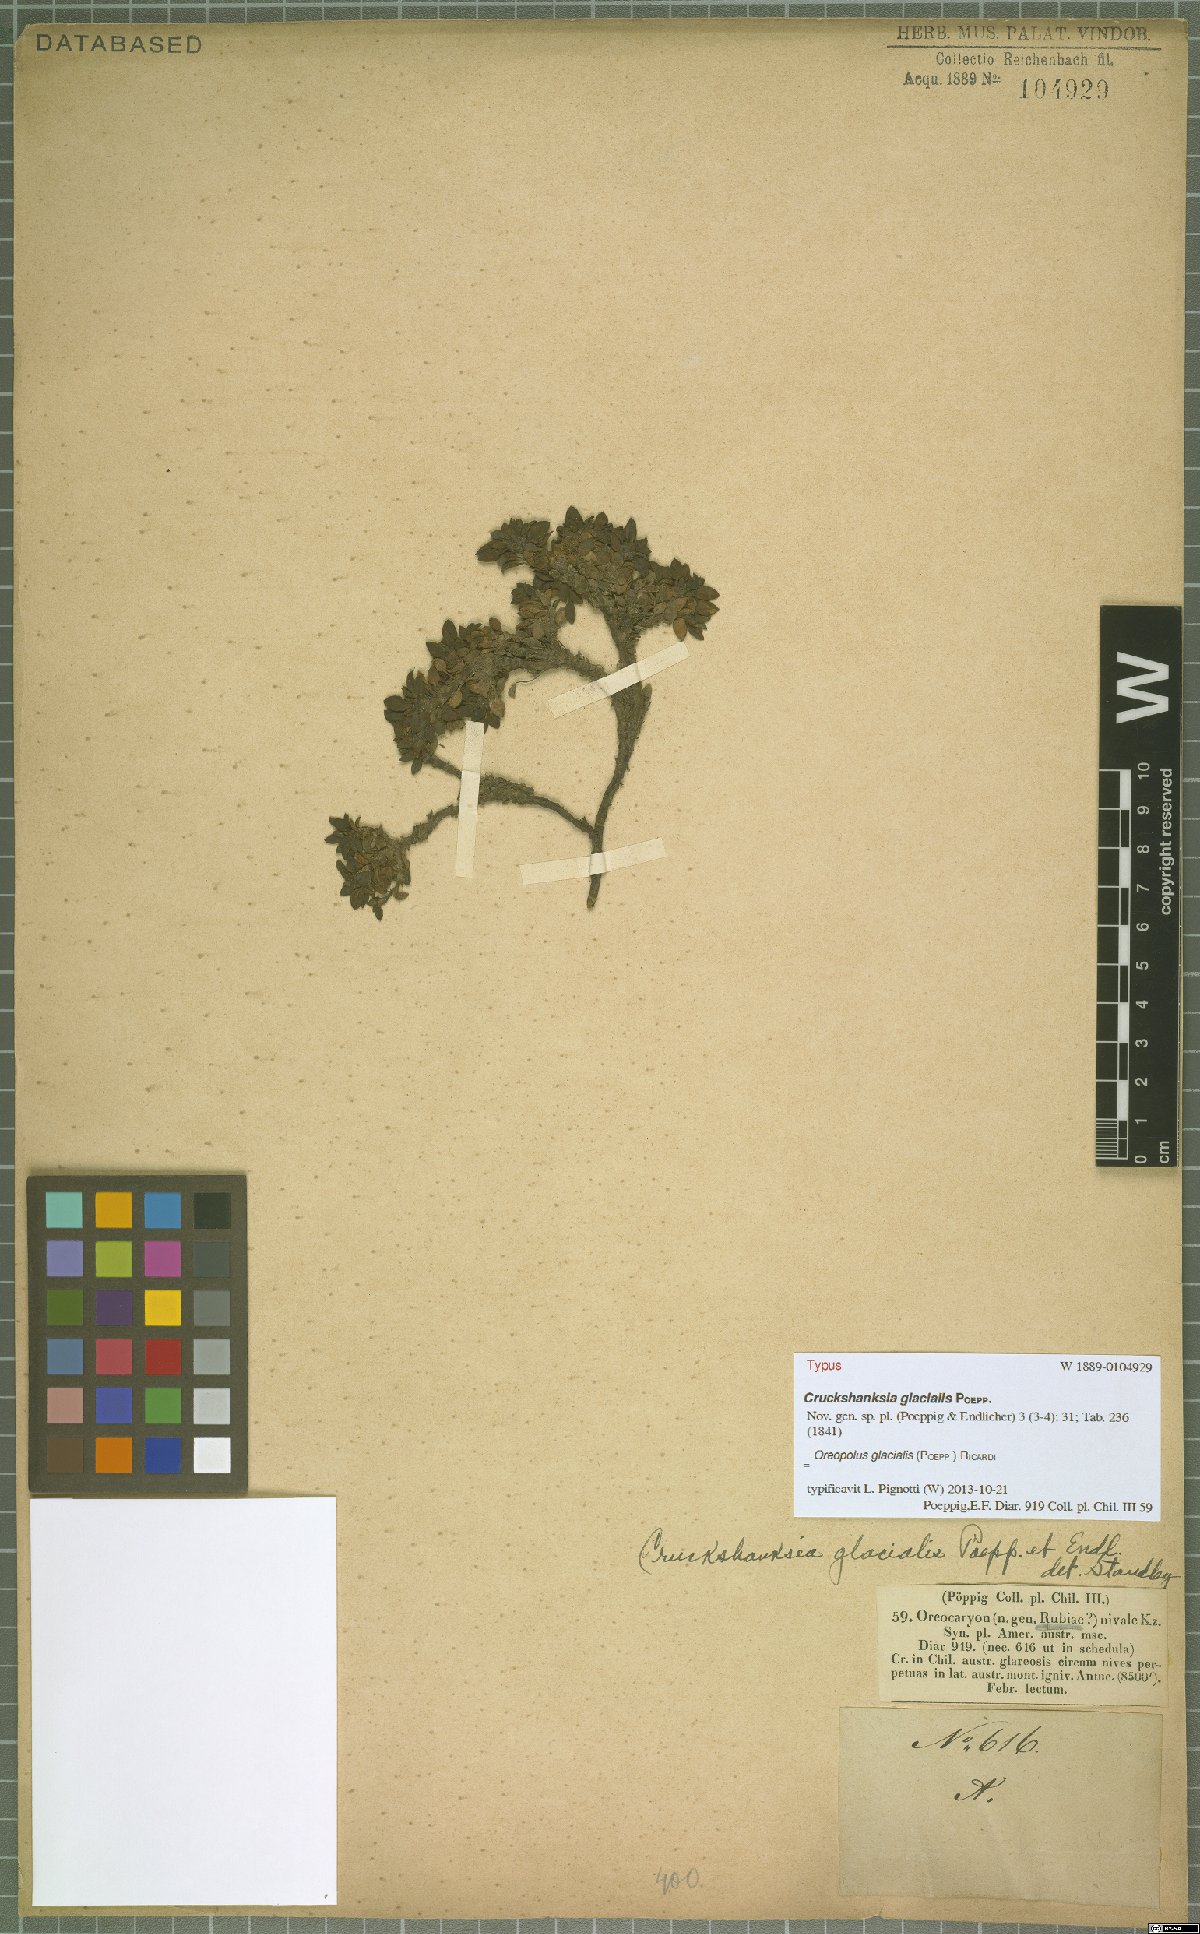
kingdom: Plantae
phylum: Tracheophyta
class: Magnoliopsida
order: Gentianales
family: Rubiaceae
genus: Oreopolus
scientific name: Oreopolus glacialis
